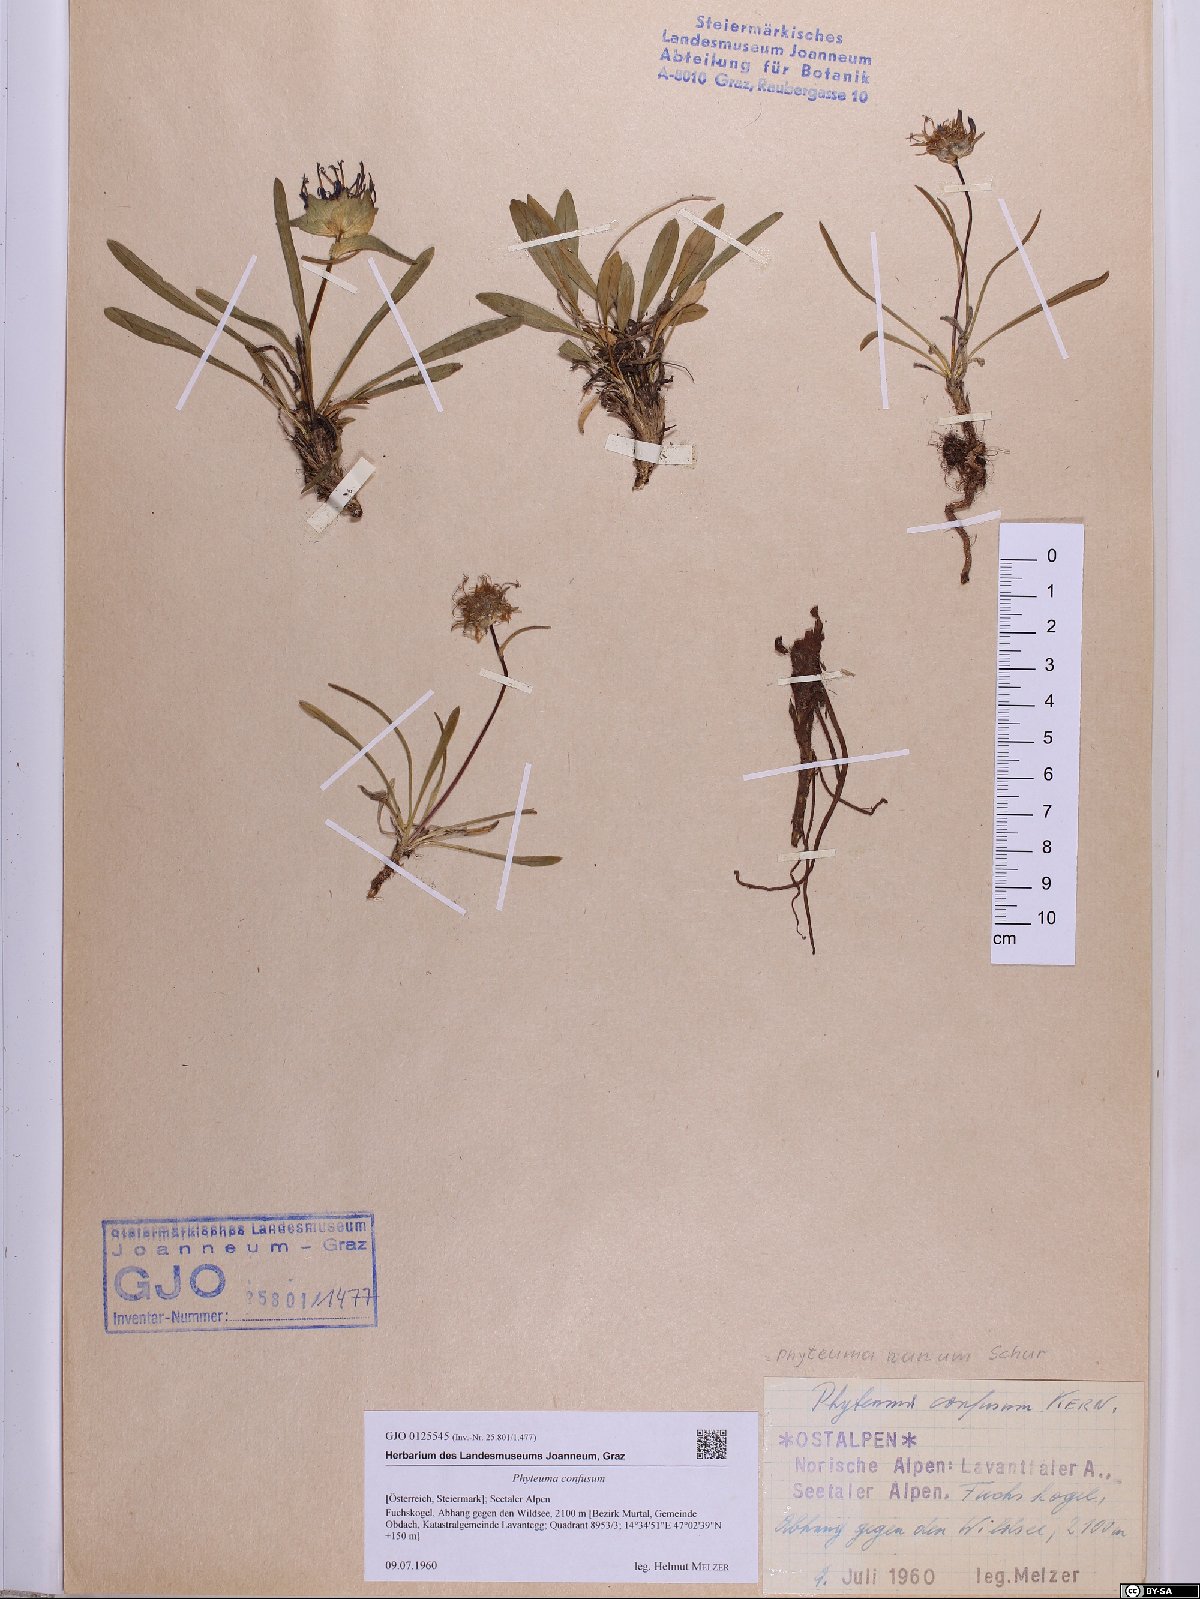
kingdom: Plantae
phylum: Tracheophyta
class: Magnoliopsida
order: Asterales
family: Campanulaceae
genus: Phyteuma
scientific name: Phyteuma confusum
